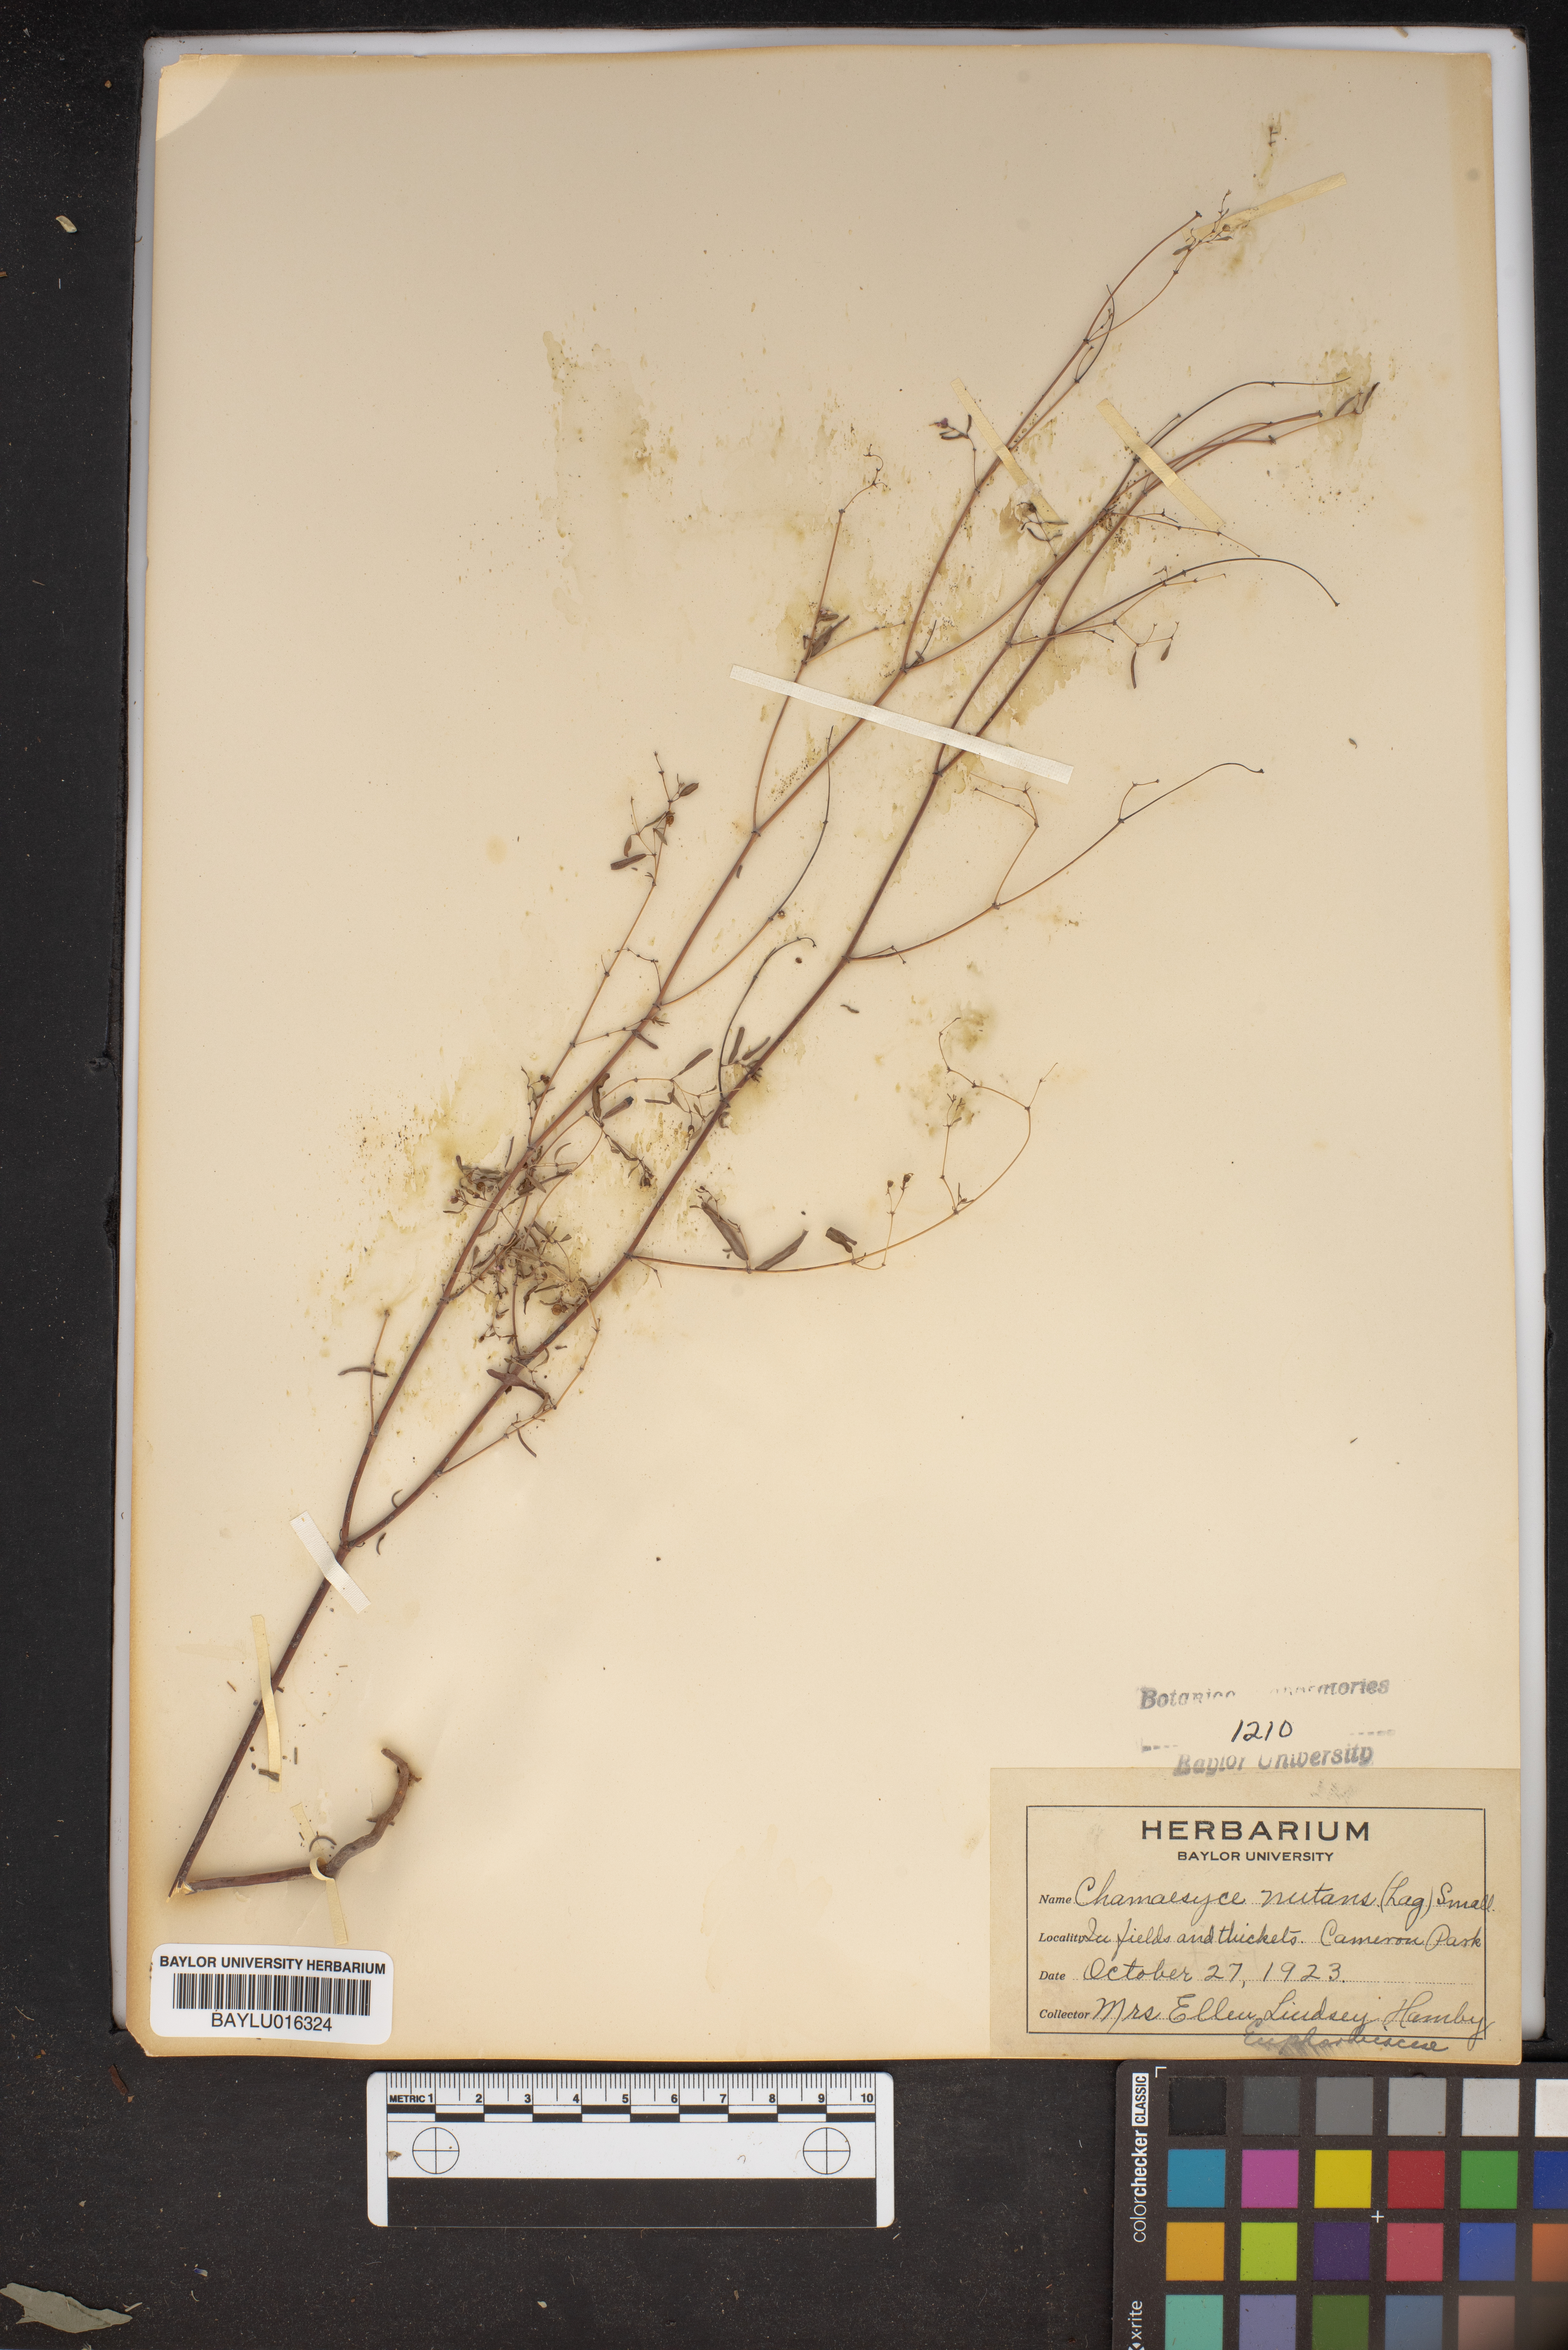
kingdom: Plantae
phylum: Tracheophyta
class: Magnoliopsida
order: Malpighiales
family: Euphorbiaceae
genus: Euphorbia
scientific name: Euphorbia nutans
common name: Eyebane
